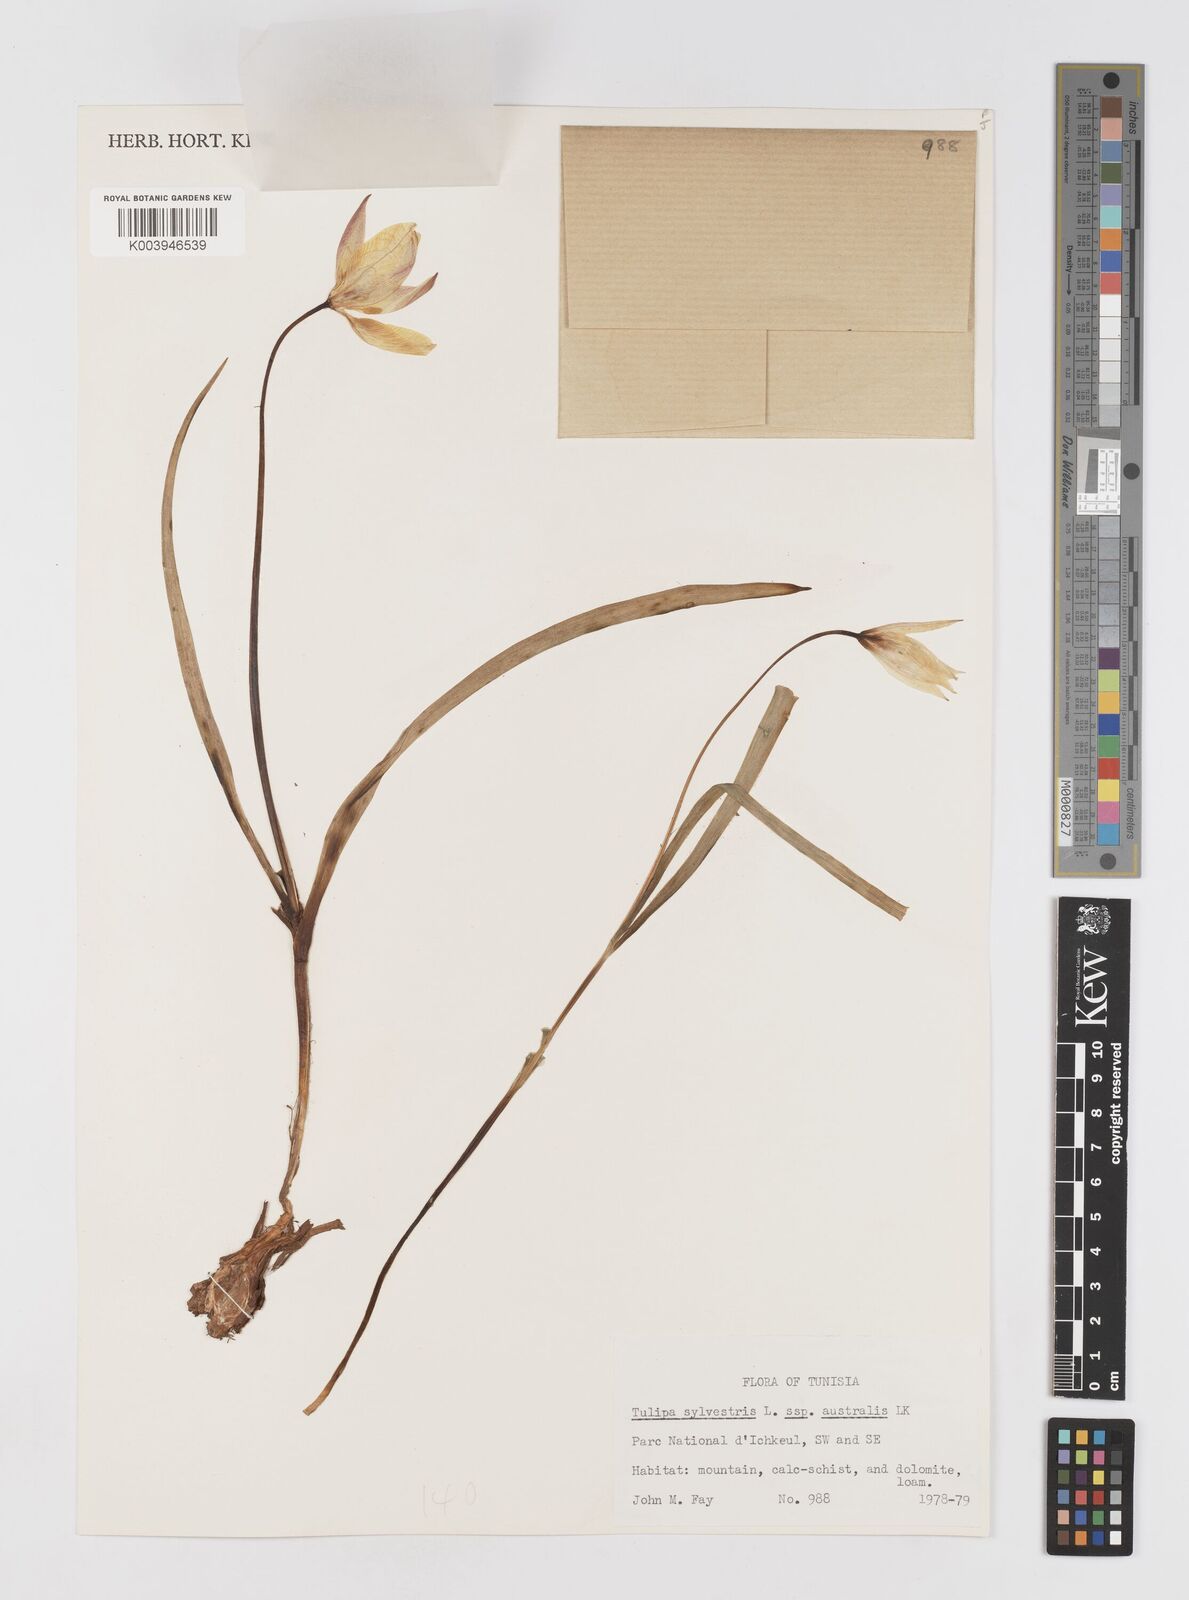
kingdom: Plantae
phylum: Tracheophyta
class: Liliopsida
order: Liliales
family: Liliaceae
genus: Tulipa
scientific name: Tulipa sylvestris
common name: Wild tulip
